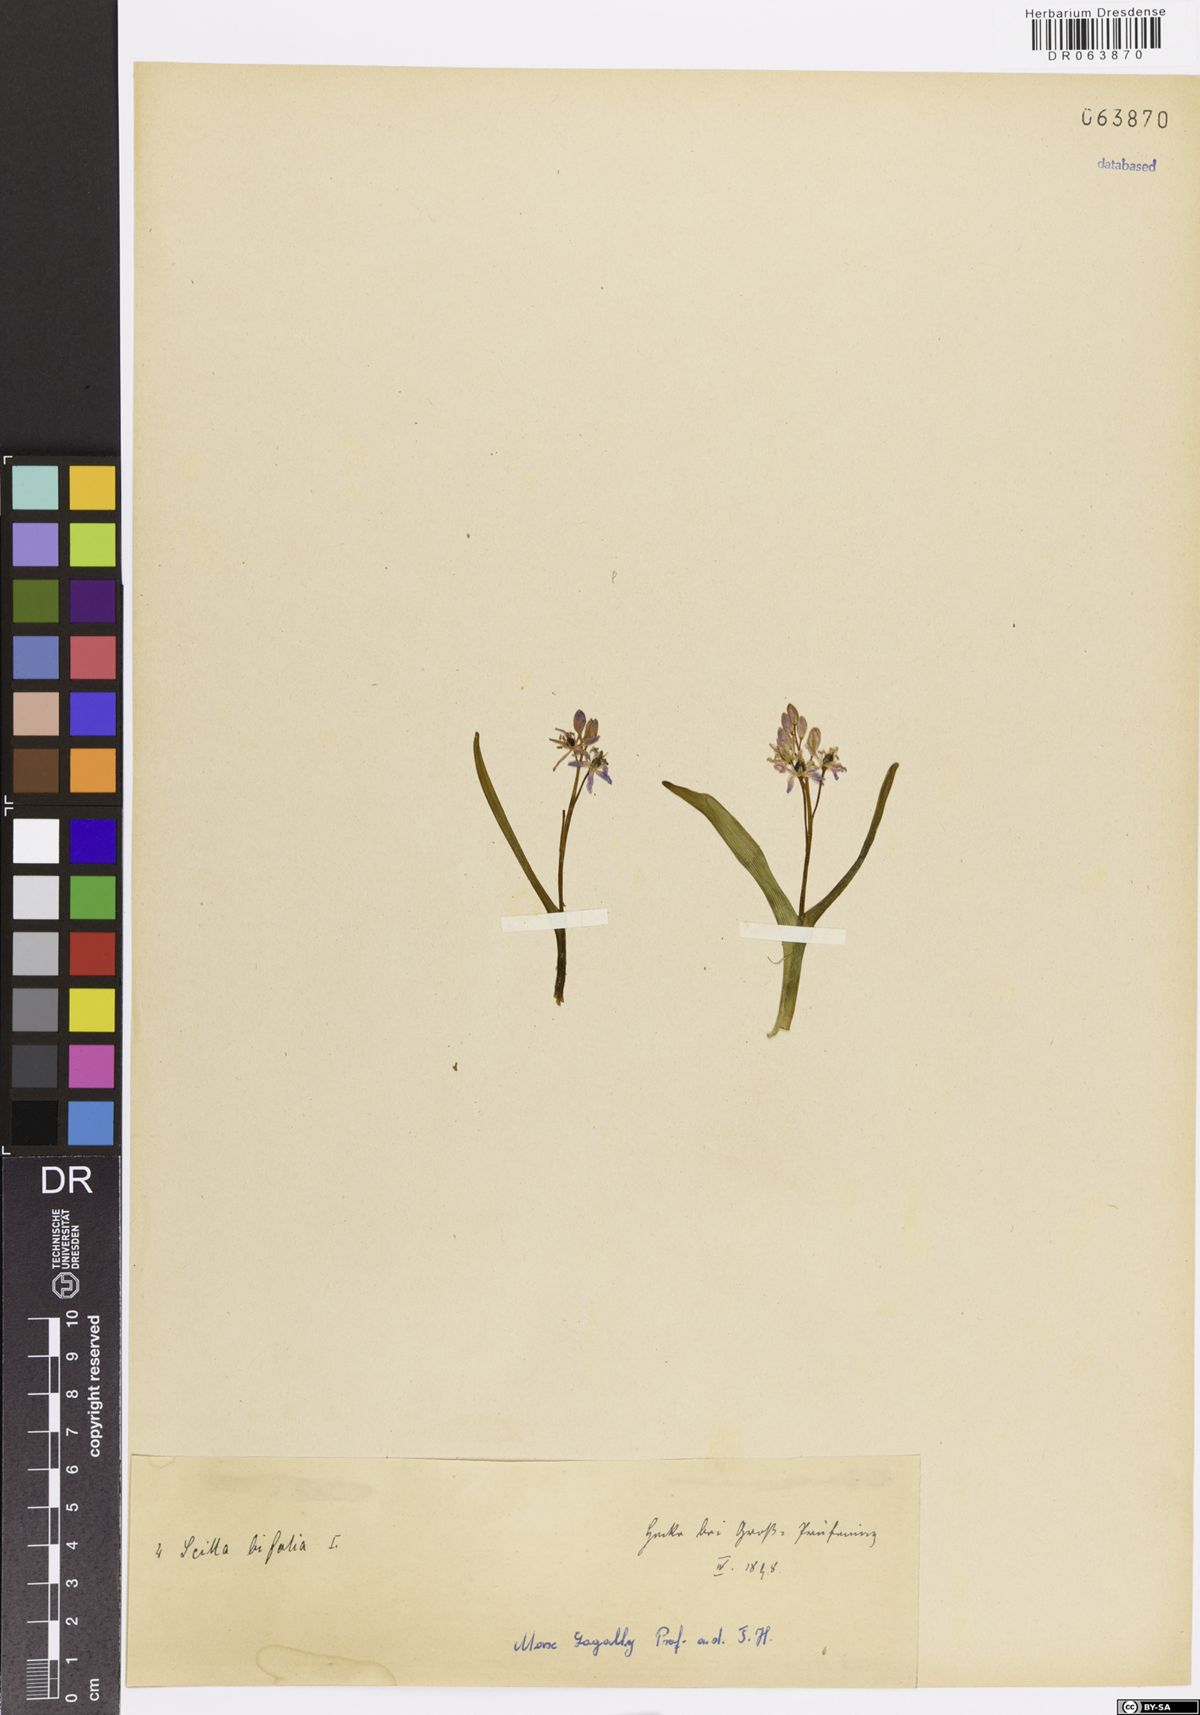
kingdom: Plantae
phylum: Tracheophyta
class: Liliopsida
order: Asparagales
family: Asparagaceae
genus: Scilla
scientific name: Scilla bifolia
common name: Alpine squill
